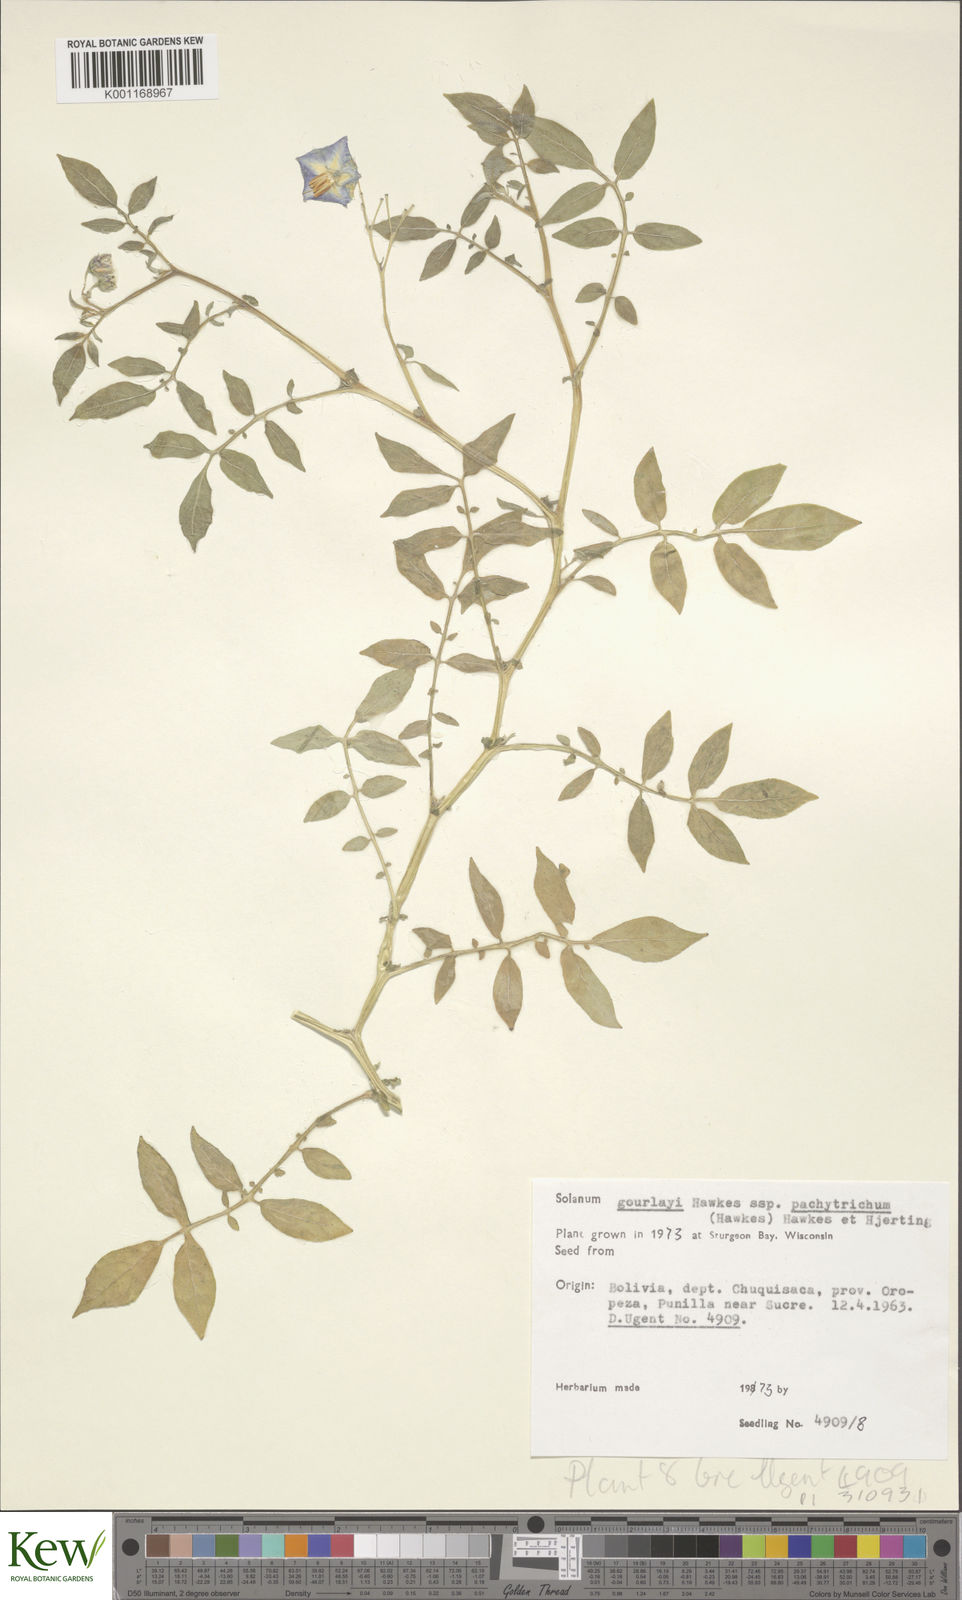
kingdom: Plantae
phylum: Tracheophyta
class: Magnoliopsida
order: Solanales
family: Solanaceae
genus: Solanum
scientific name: Solanum brevicaule
